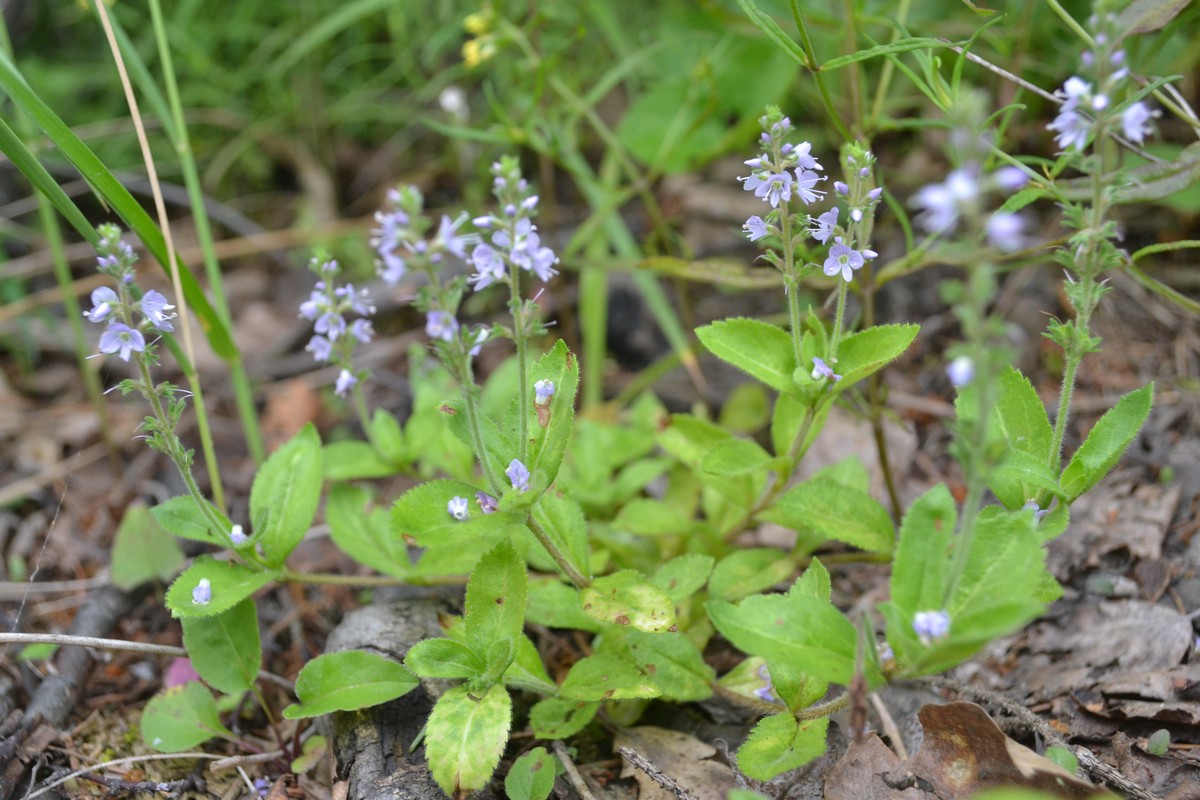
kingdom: Plantae
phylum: Tracheophyta
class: Magnoliopsida
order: Lamiales
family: Plantaginaceae
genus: Veronica
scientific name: Veronica officinalis
